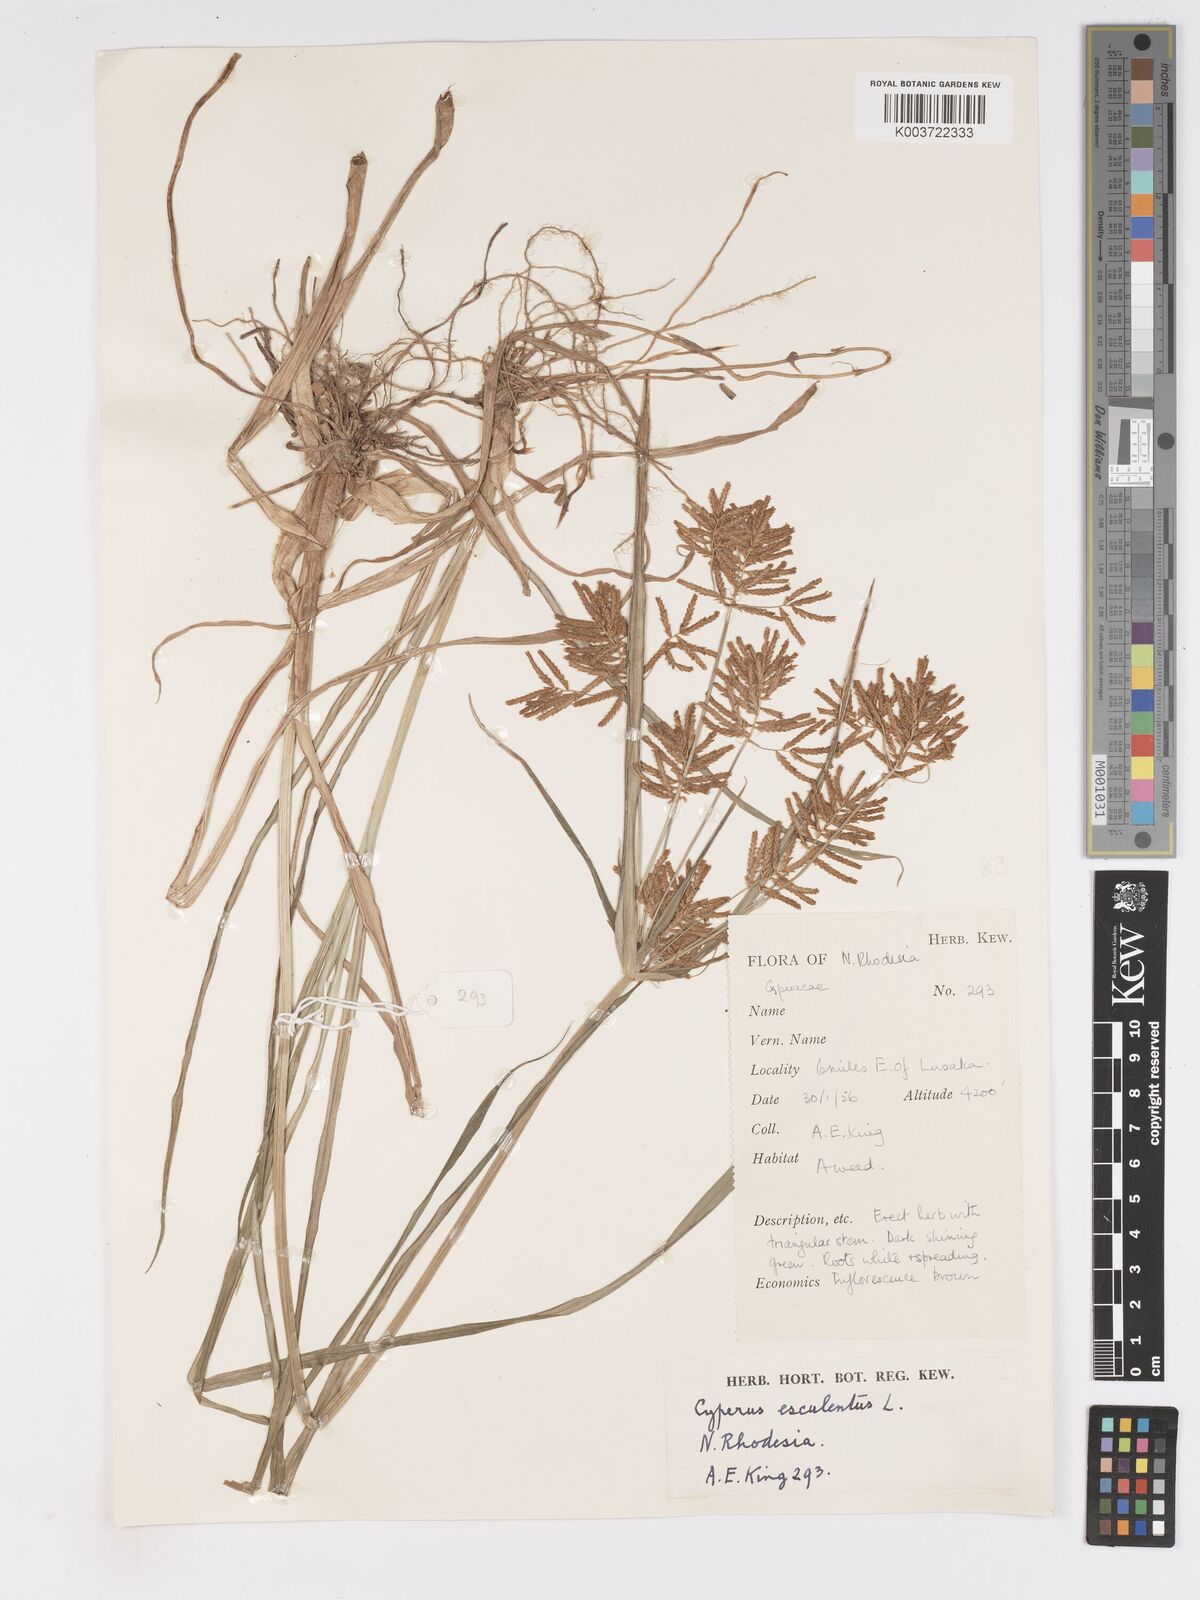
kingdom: Plantae
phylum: Tracheophyta
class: Liliopsida
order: Poales
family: Cyperaceae
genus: Cyperus
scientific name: Cyperus esculentus
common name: Yellow nutsedge
